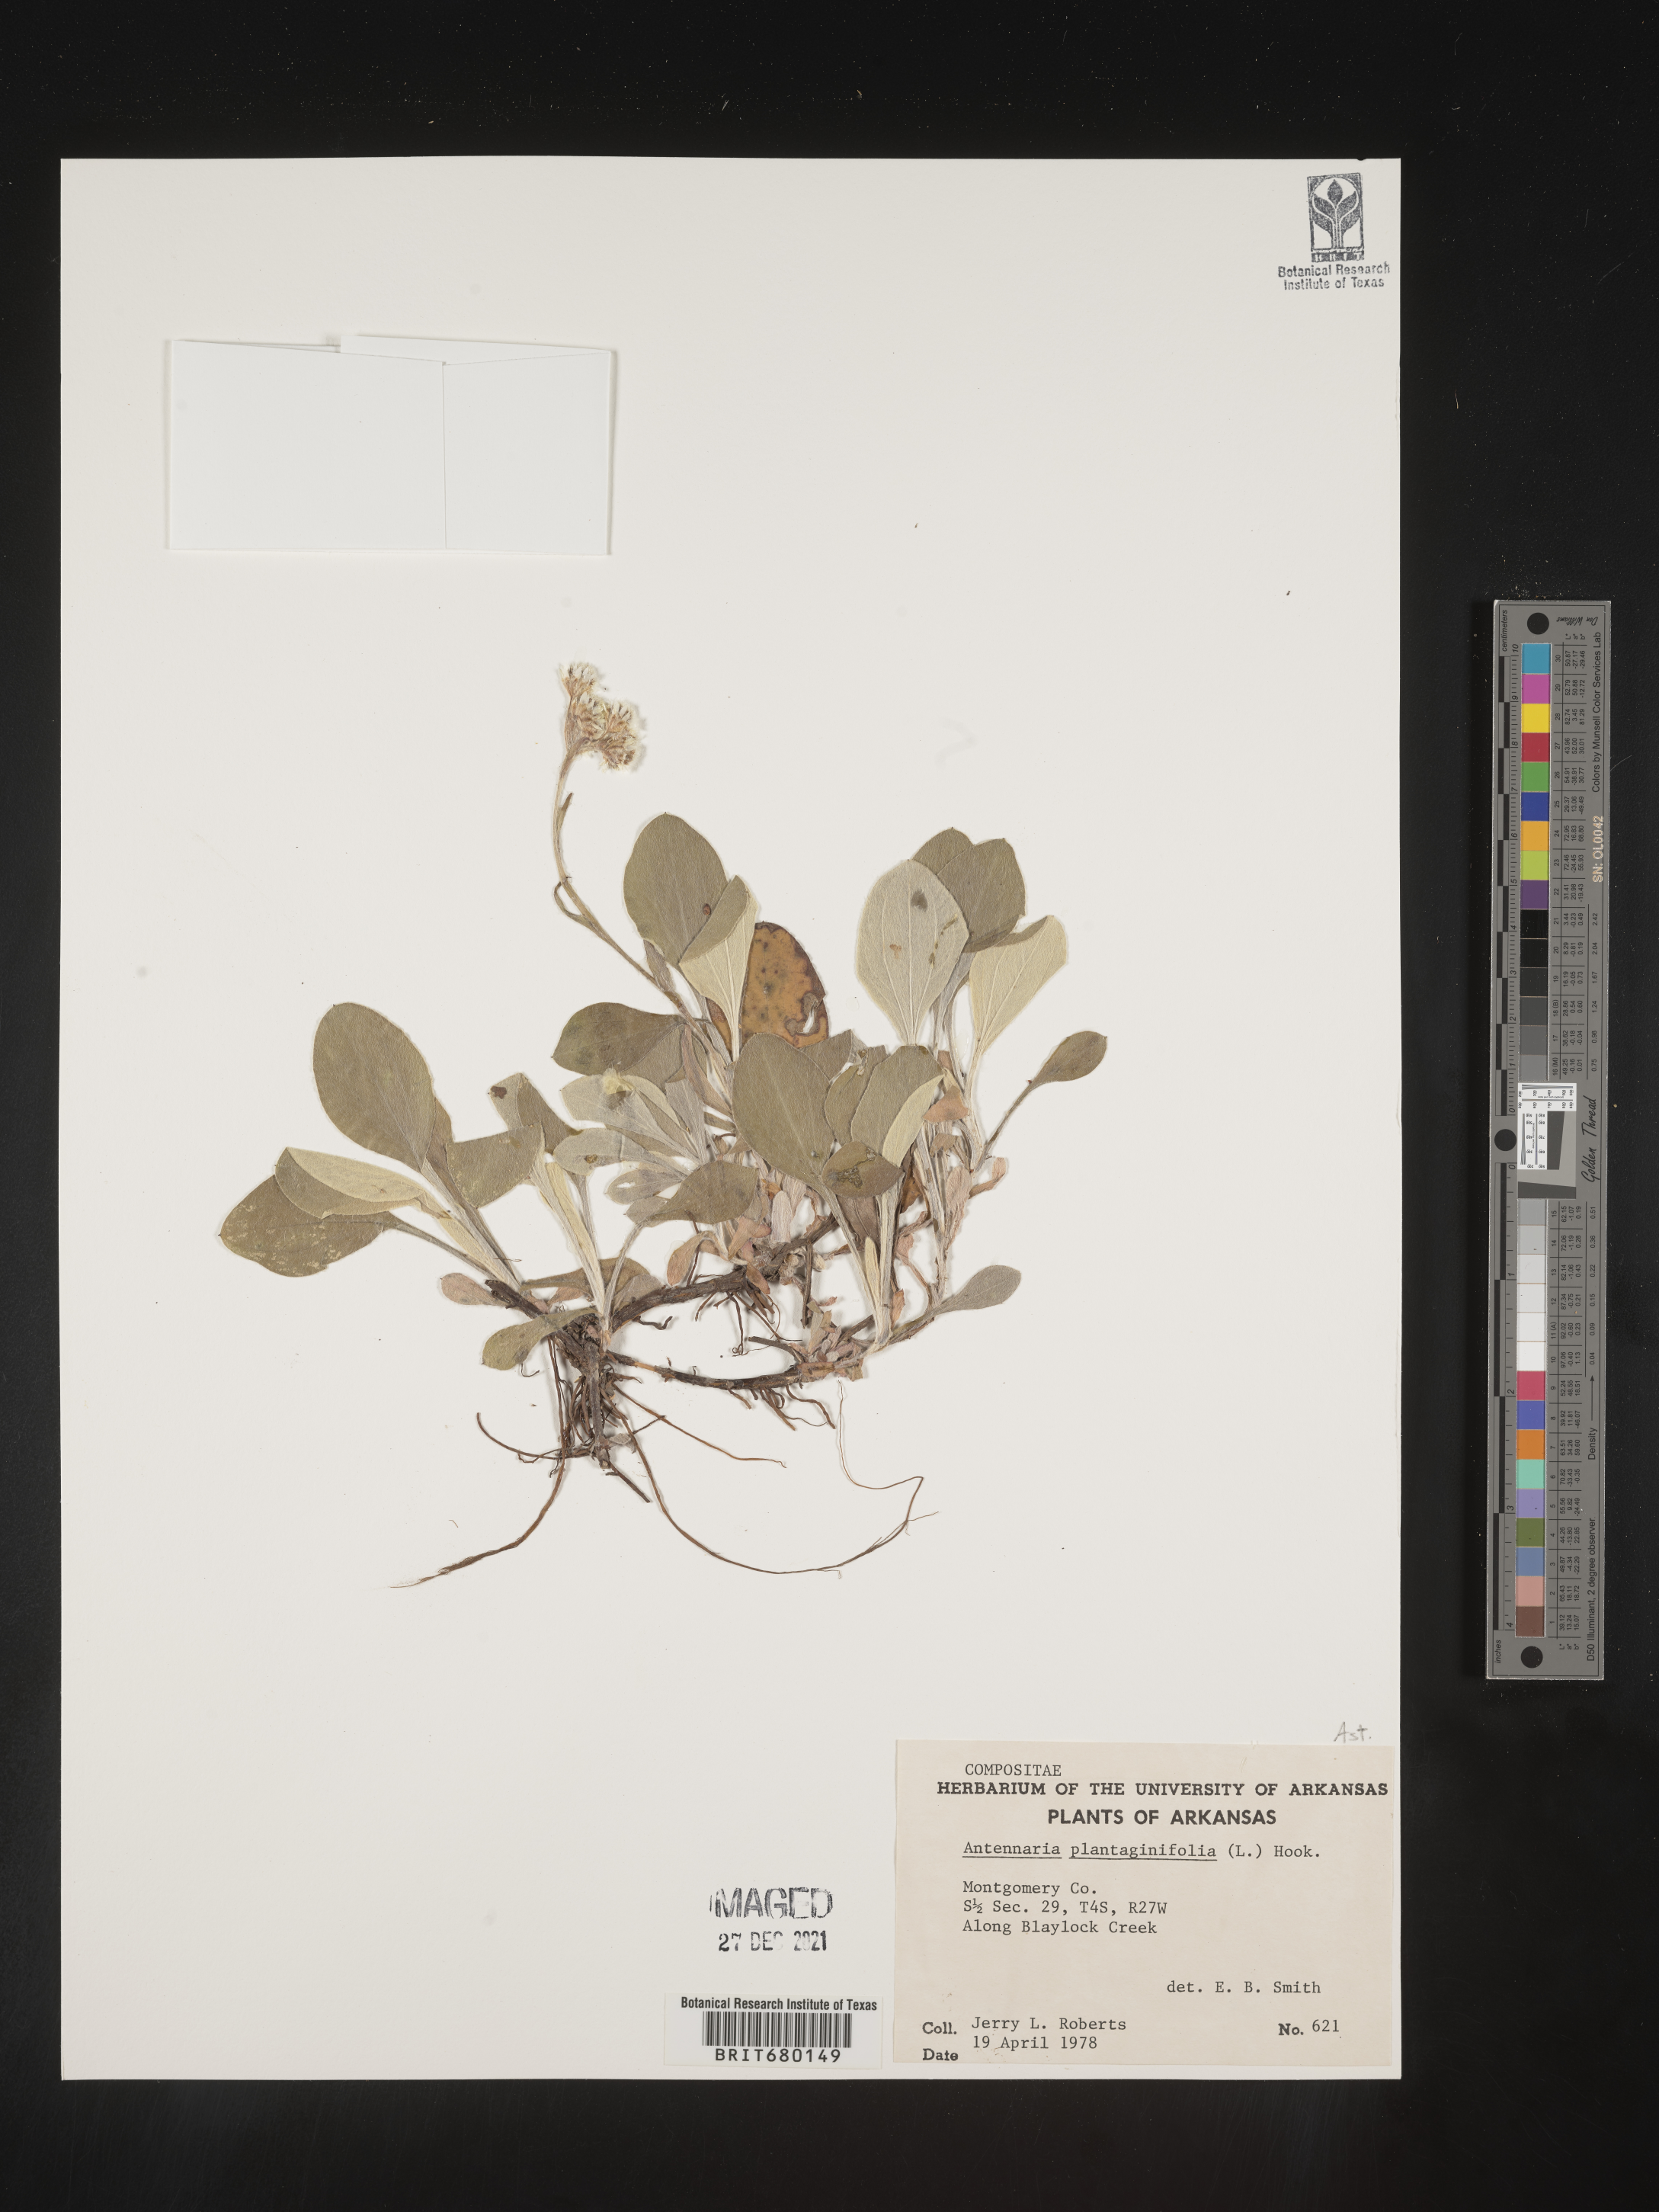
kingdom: Plantae
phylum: Tracheophyta
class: Magnoliopsida
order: Asterales
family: Asteraceae
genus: Antennaria
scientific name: Antennaria plantaginifolia
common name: Plantain-leaved pussytoes
